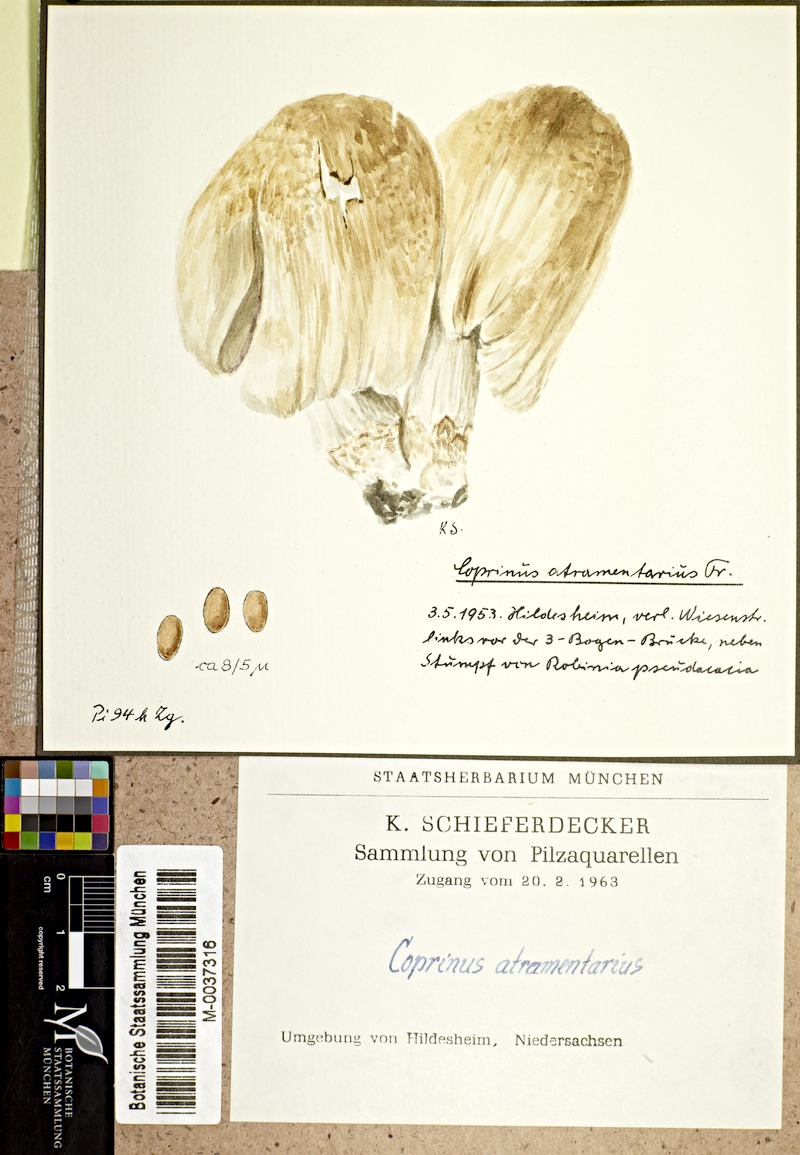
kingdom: Fungi
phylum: Basidiomycota
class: Agaricomycetes
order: Agaricales
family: Psathyrellaceae
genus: Coprinopsis
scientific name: Coprinopsis atramentaria
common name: Common ink-cap
